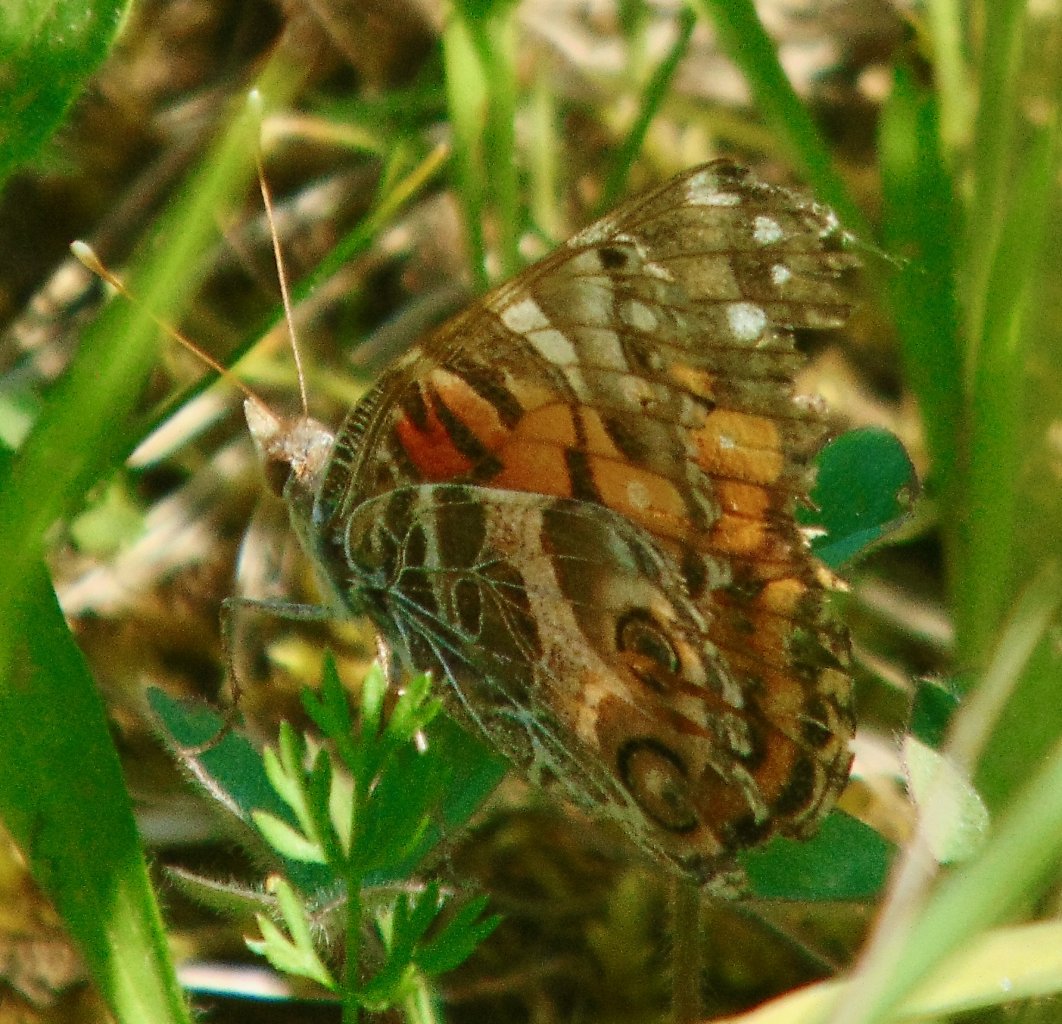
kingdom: Animalia
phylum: Arthropoda
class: Insecta
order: Lepidoptera
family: Nymphalidae
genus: Vanessa
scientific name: Vanessa virginiensis
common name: American Lady
